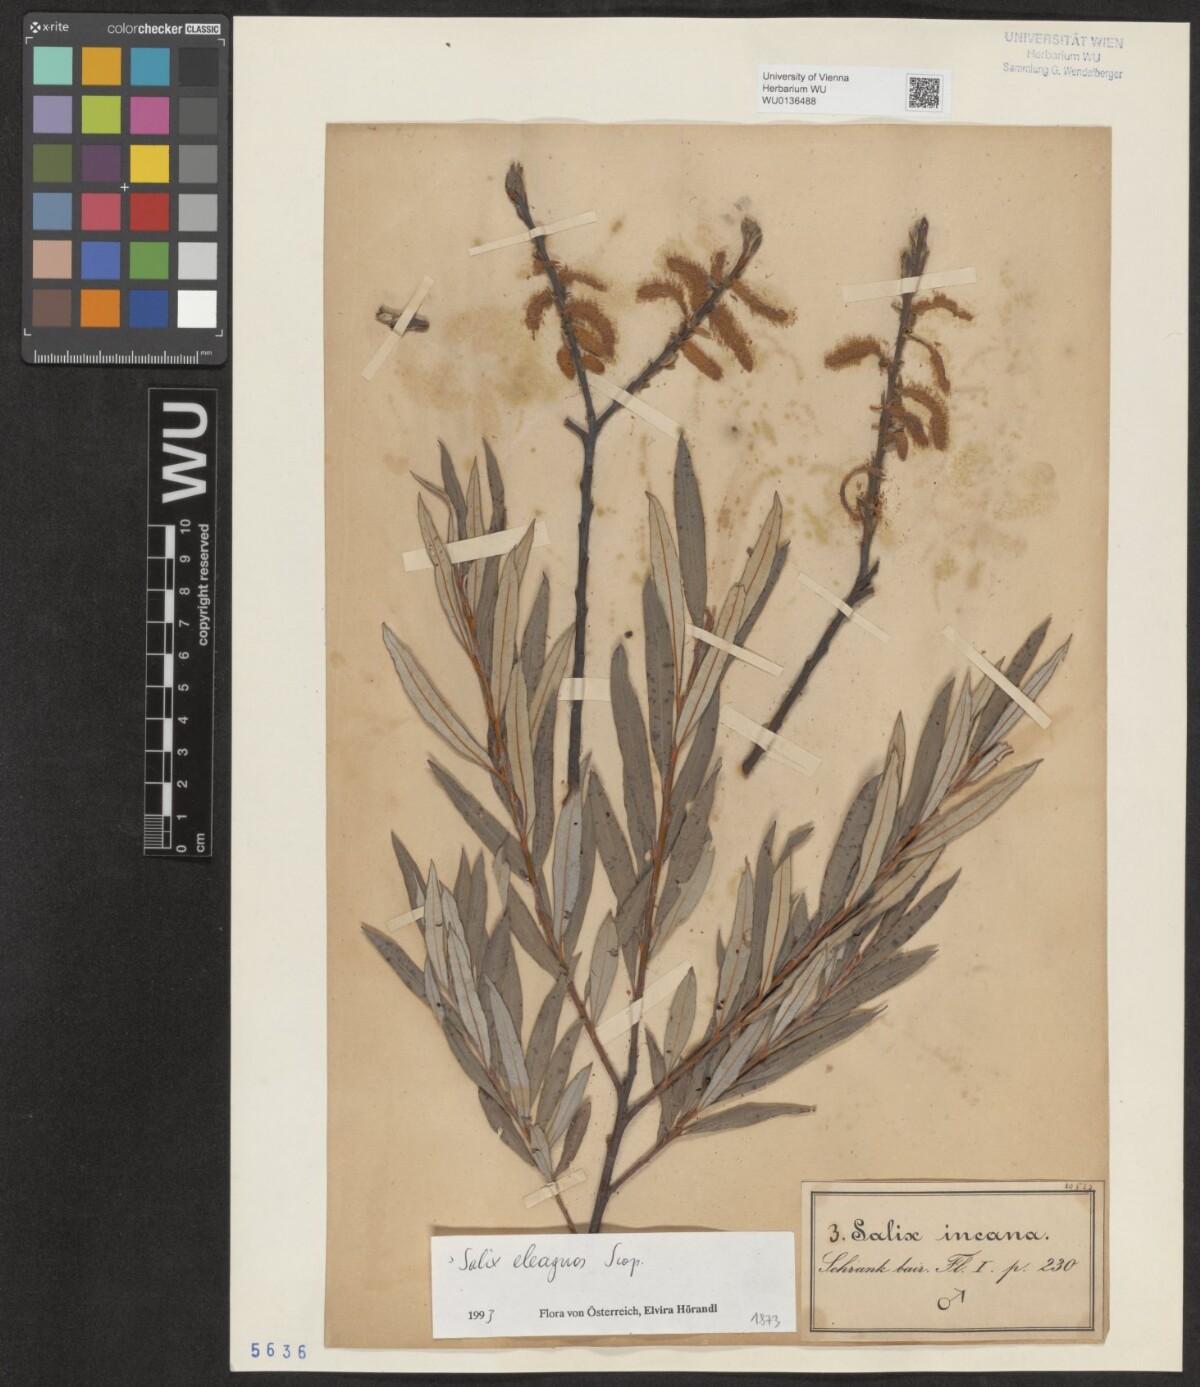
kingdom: Plantae
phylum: Tracheophyta
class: Magnoliopsida
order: Malpighiales
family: Salicaceae
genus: Salix
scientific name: Salix eleagnos
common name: Elaeagnus willow
